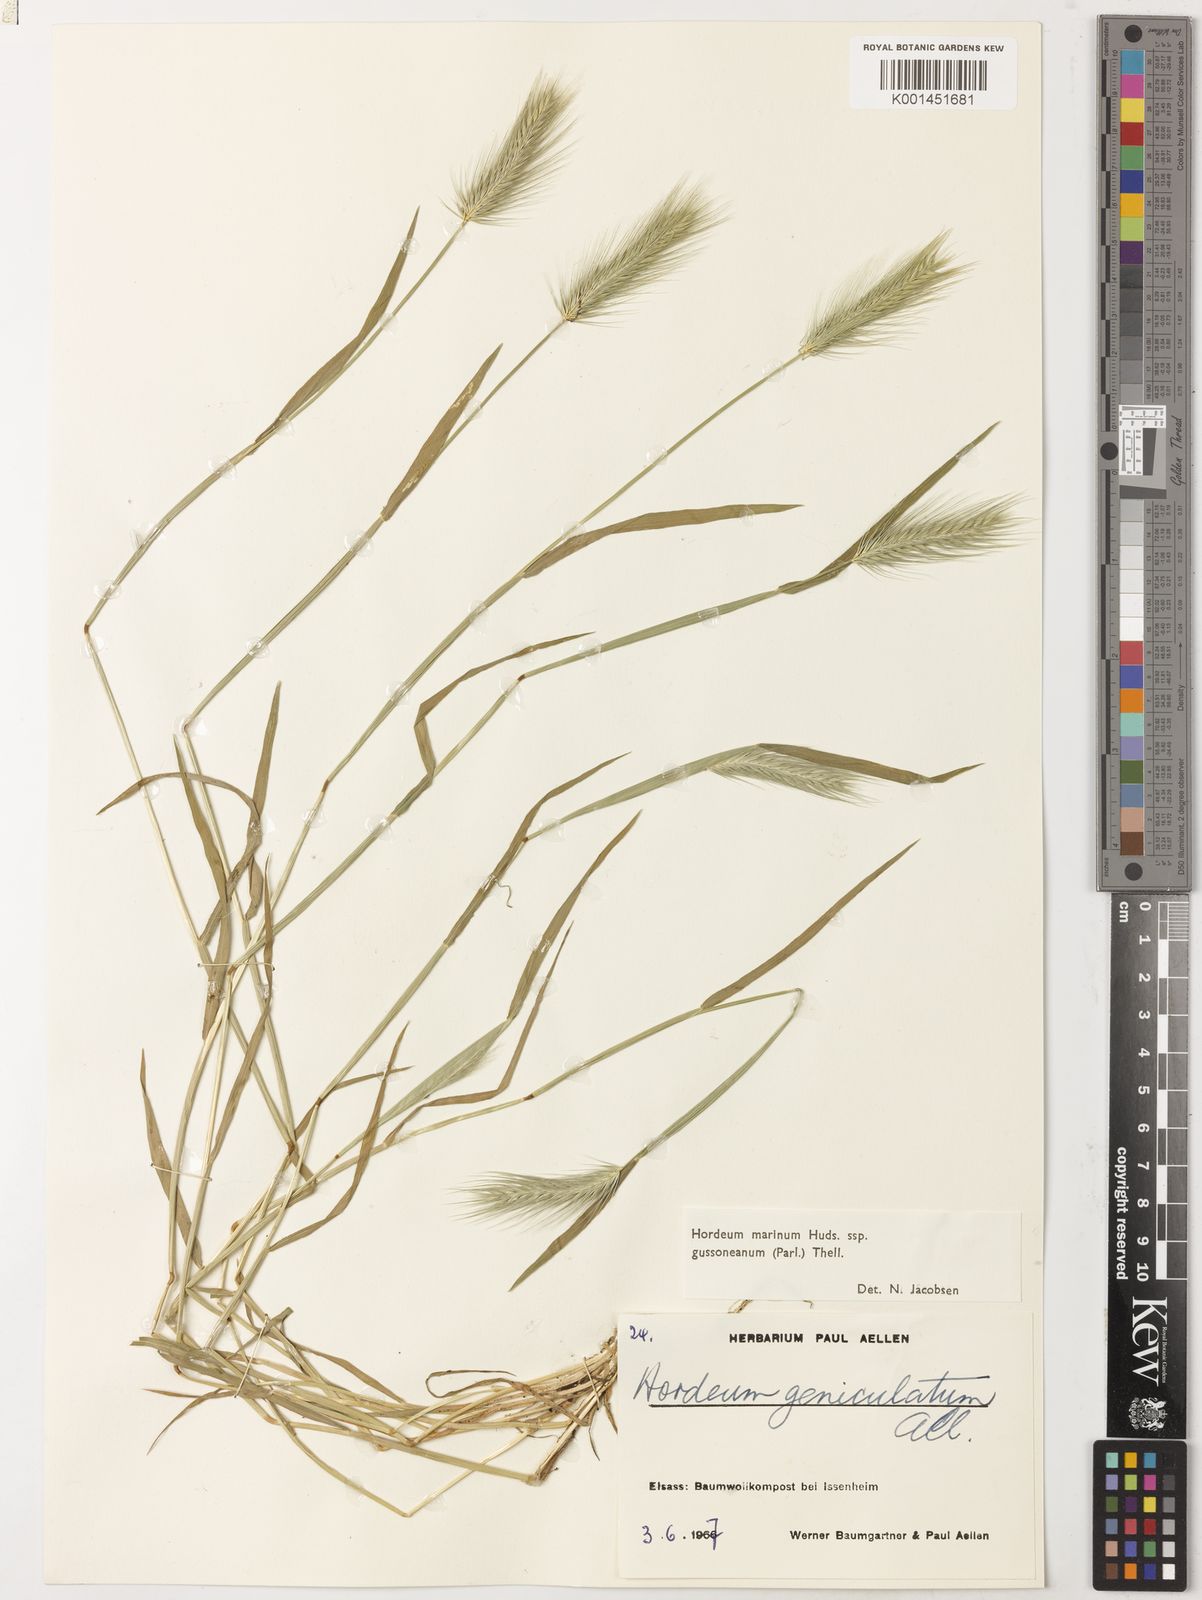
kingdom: Plantae
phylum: Tracheophyta
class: Liliopsida
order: Poales
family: Poaceae
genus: Hordeum
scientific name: Hordeum marinum
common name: Sea barley
